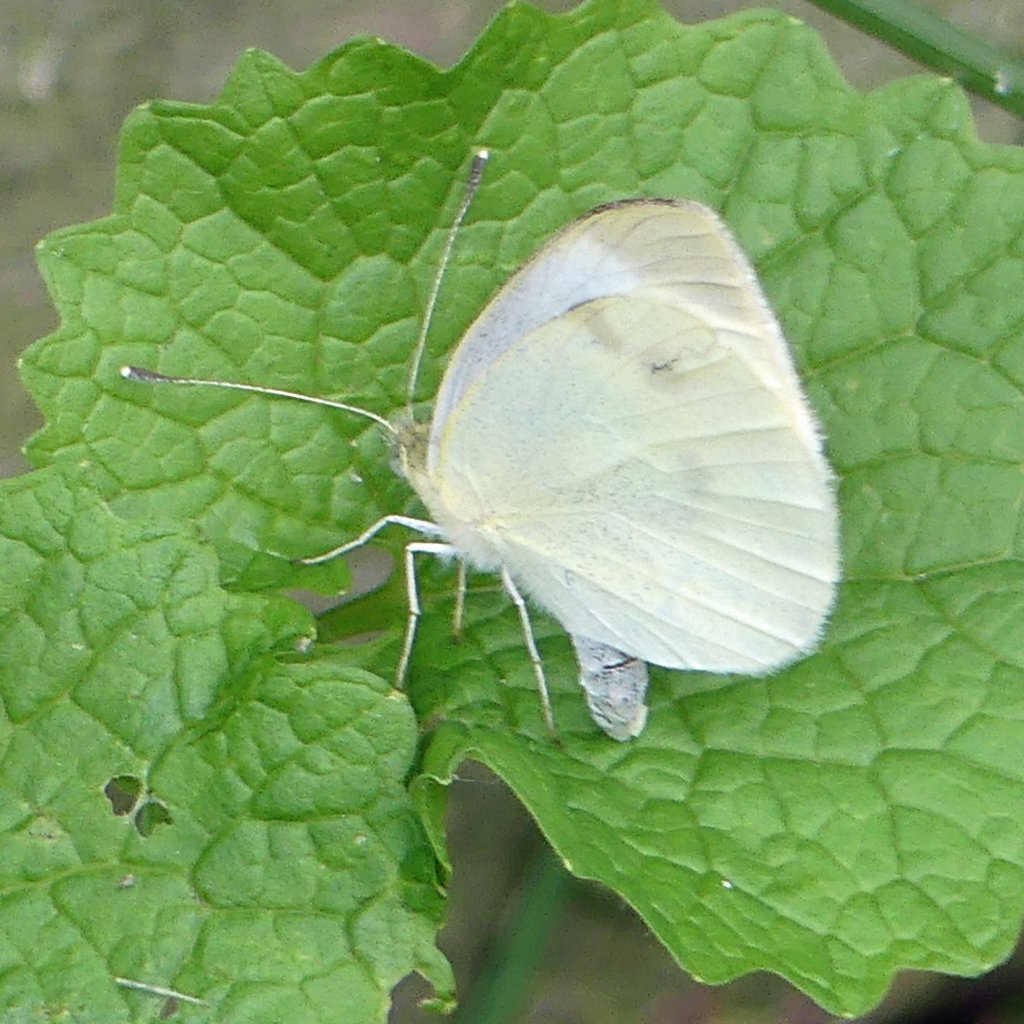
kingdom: Animalia
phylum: Arthropoda
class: Insecta
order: Lepidoptera
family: Pieridae
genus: Pieris
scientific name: Pieris rapae
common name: Cabbage White
